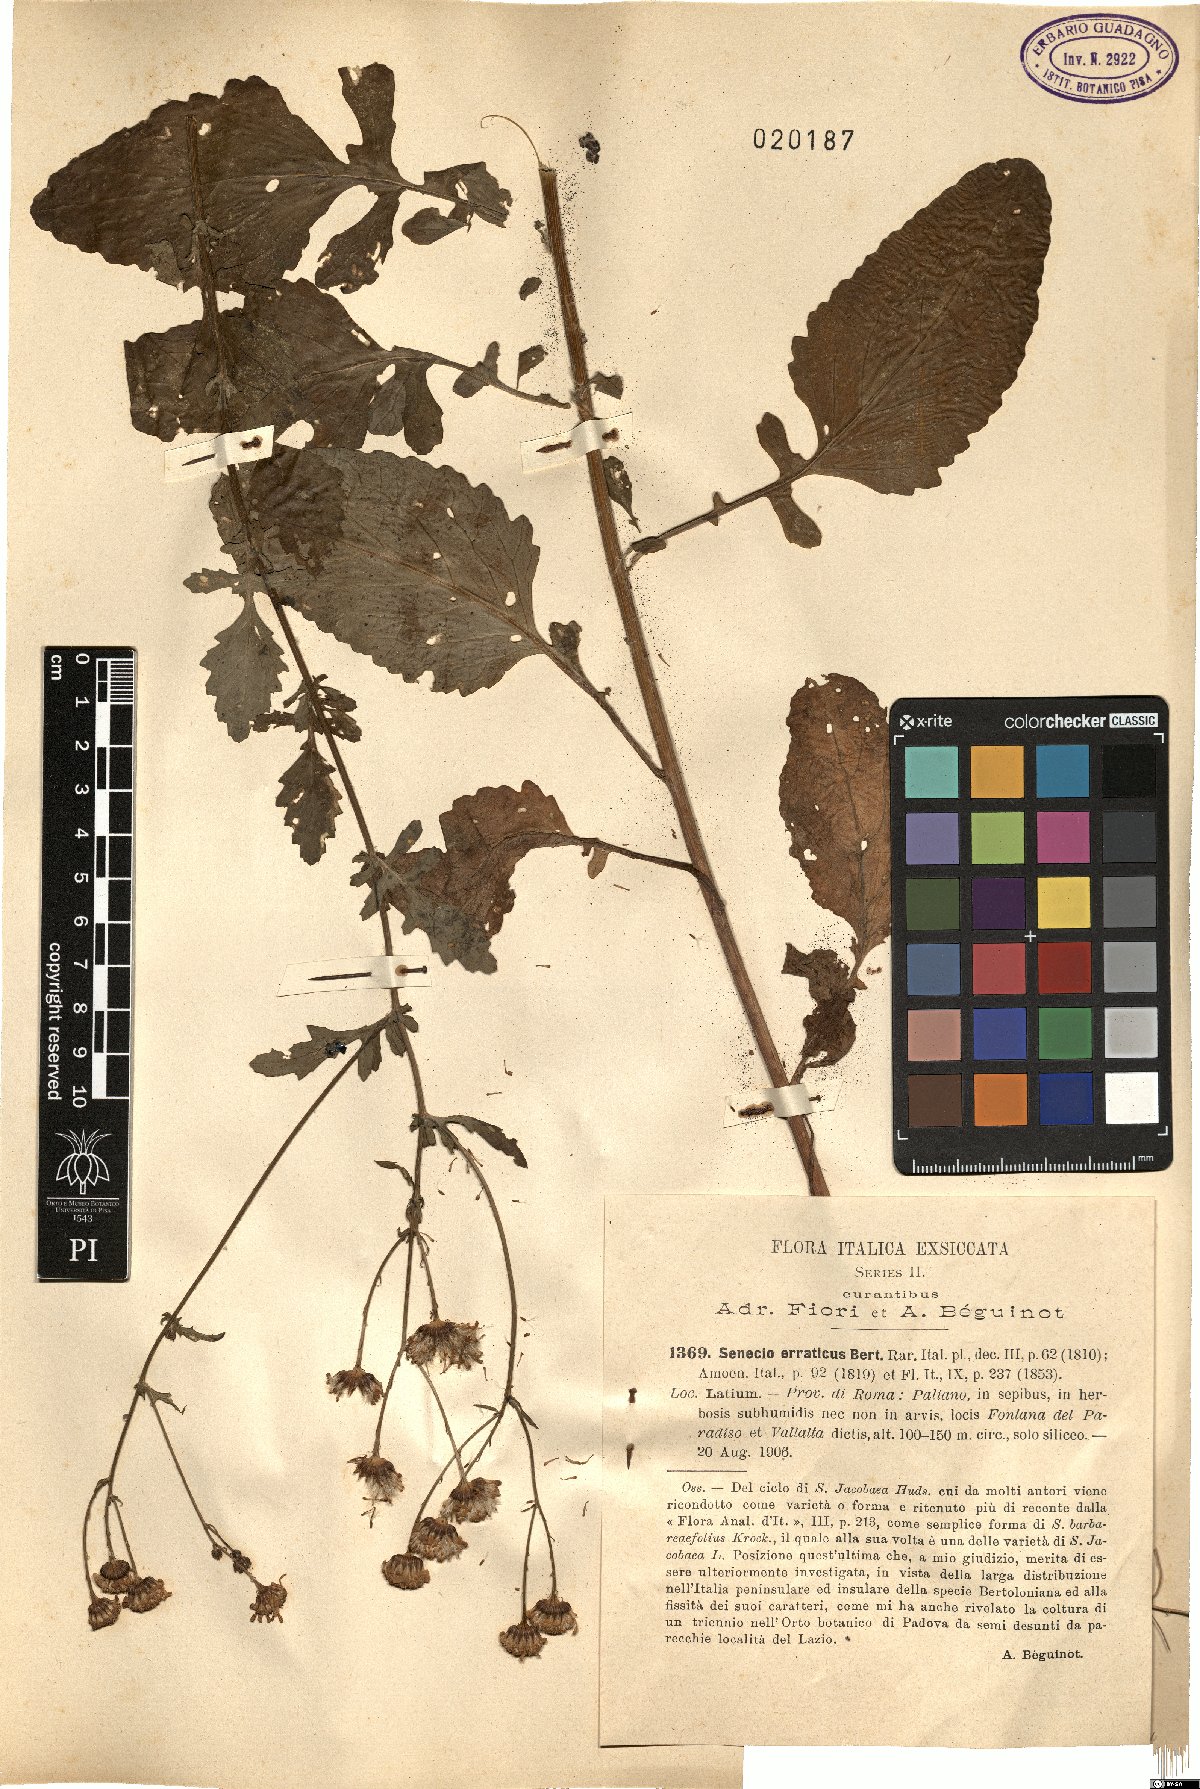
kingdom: Plantae
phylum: Tracheophyta
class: Magnoliopsida
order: Asterales
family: Asteraceae
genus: Jacobaea
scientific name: Jacobaea erratica
